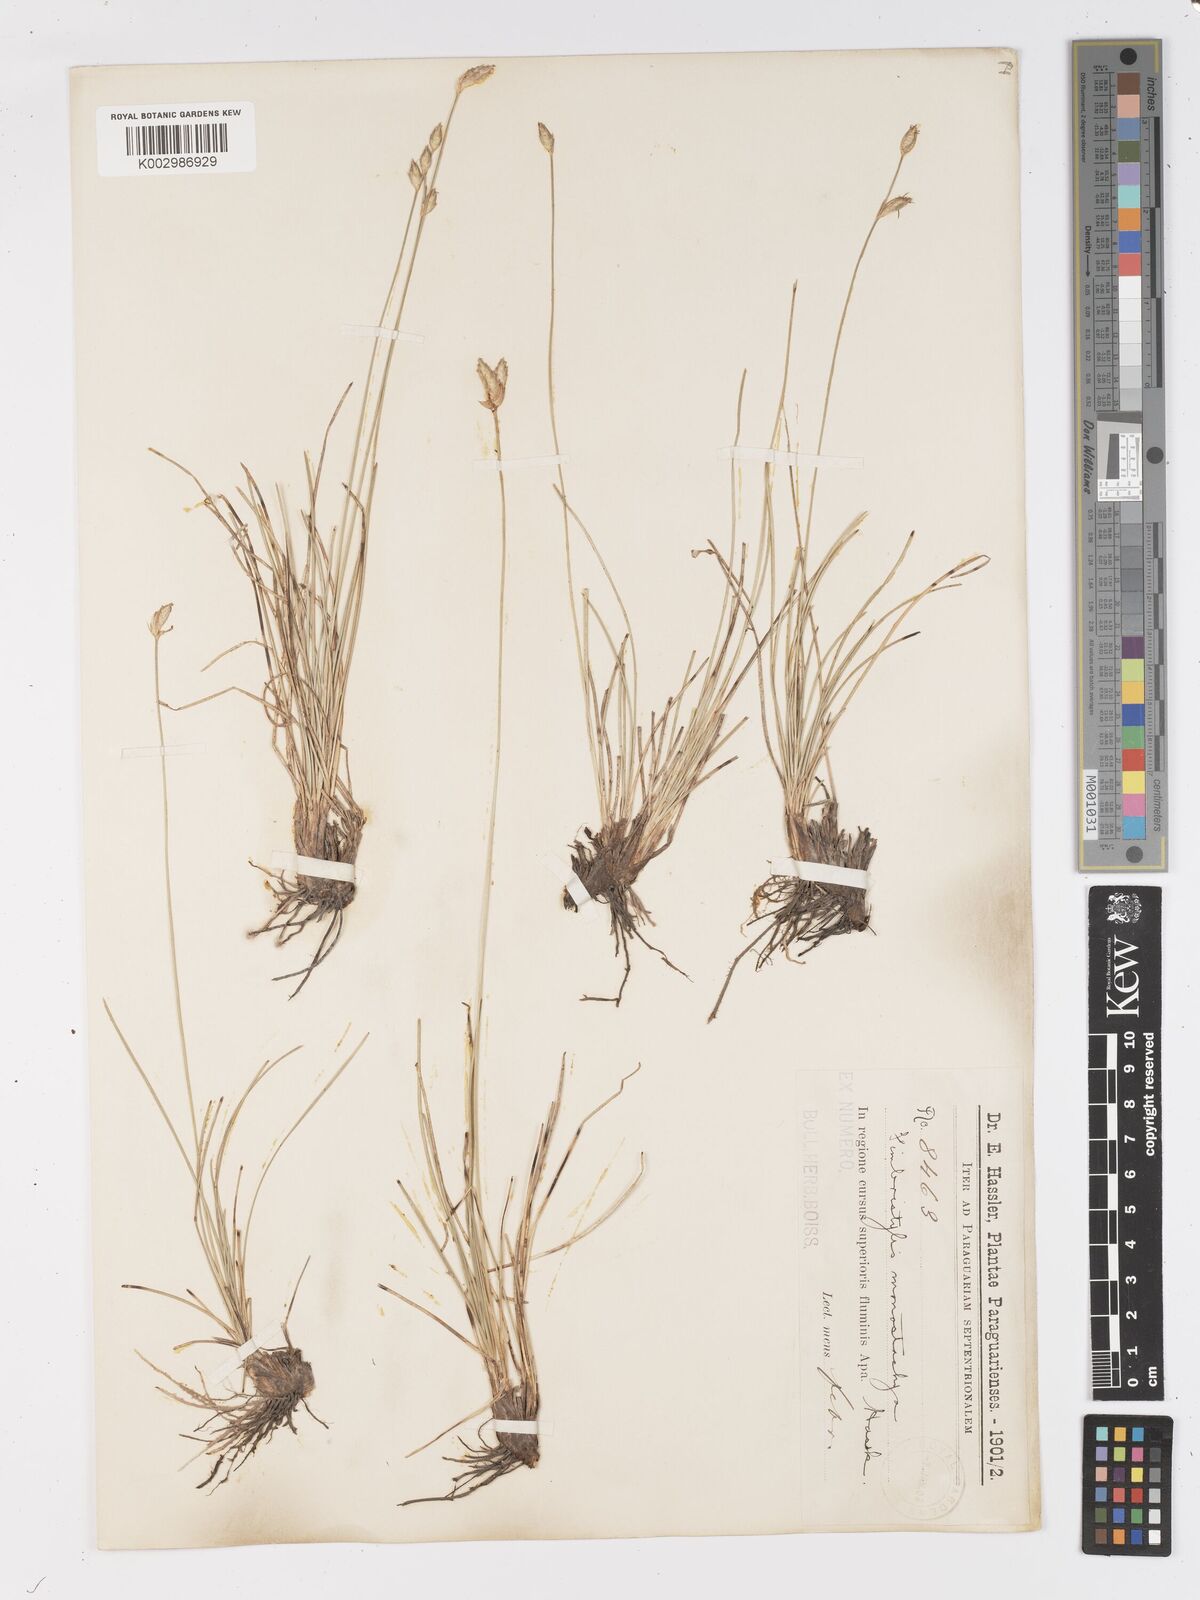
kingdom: Plantae
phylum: Tracheophyta
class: Liliopsida
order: Poales
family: Cyperaceae
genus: Abildgaardia
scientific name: Abildgaardia ovata
